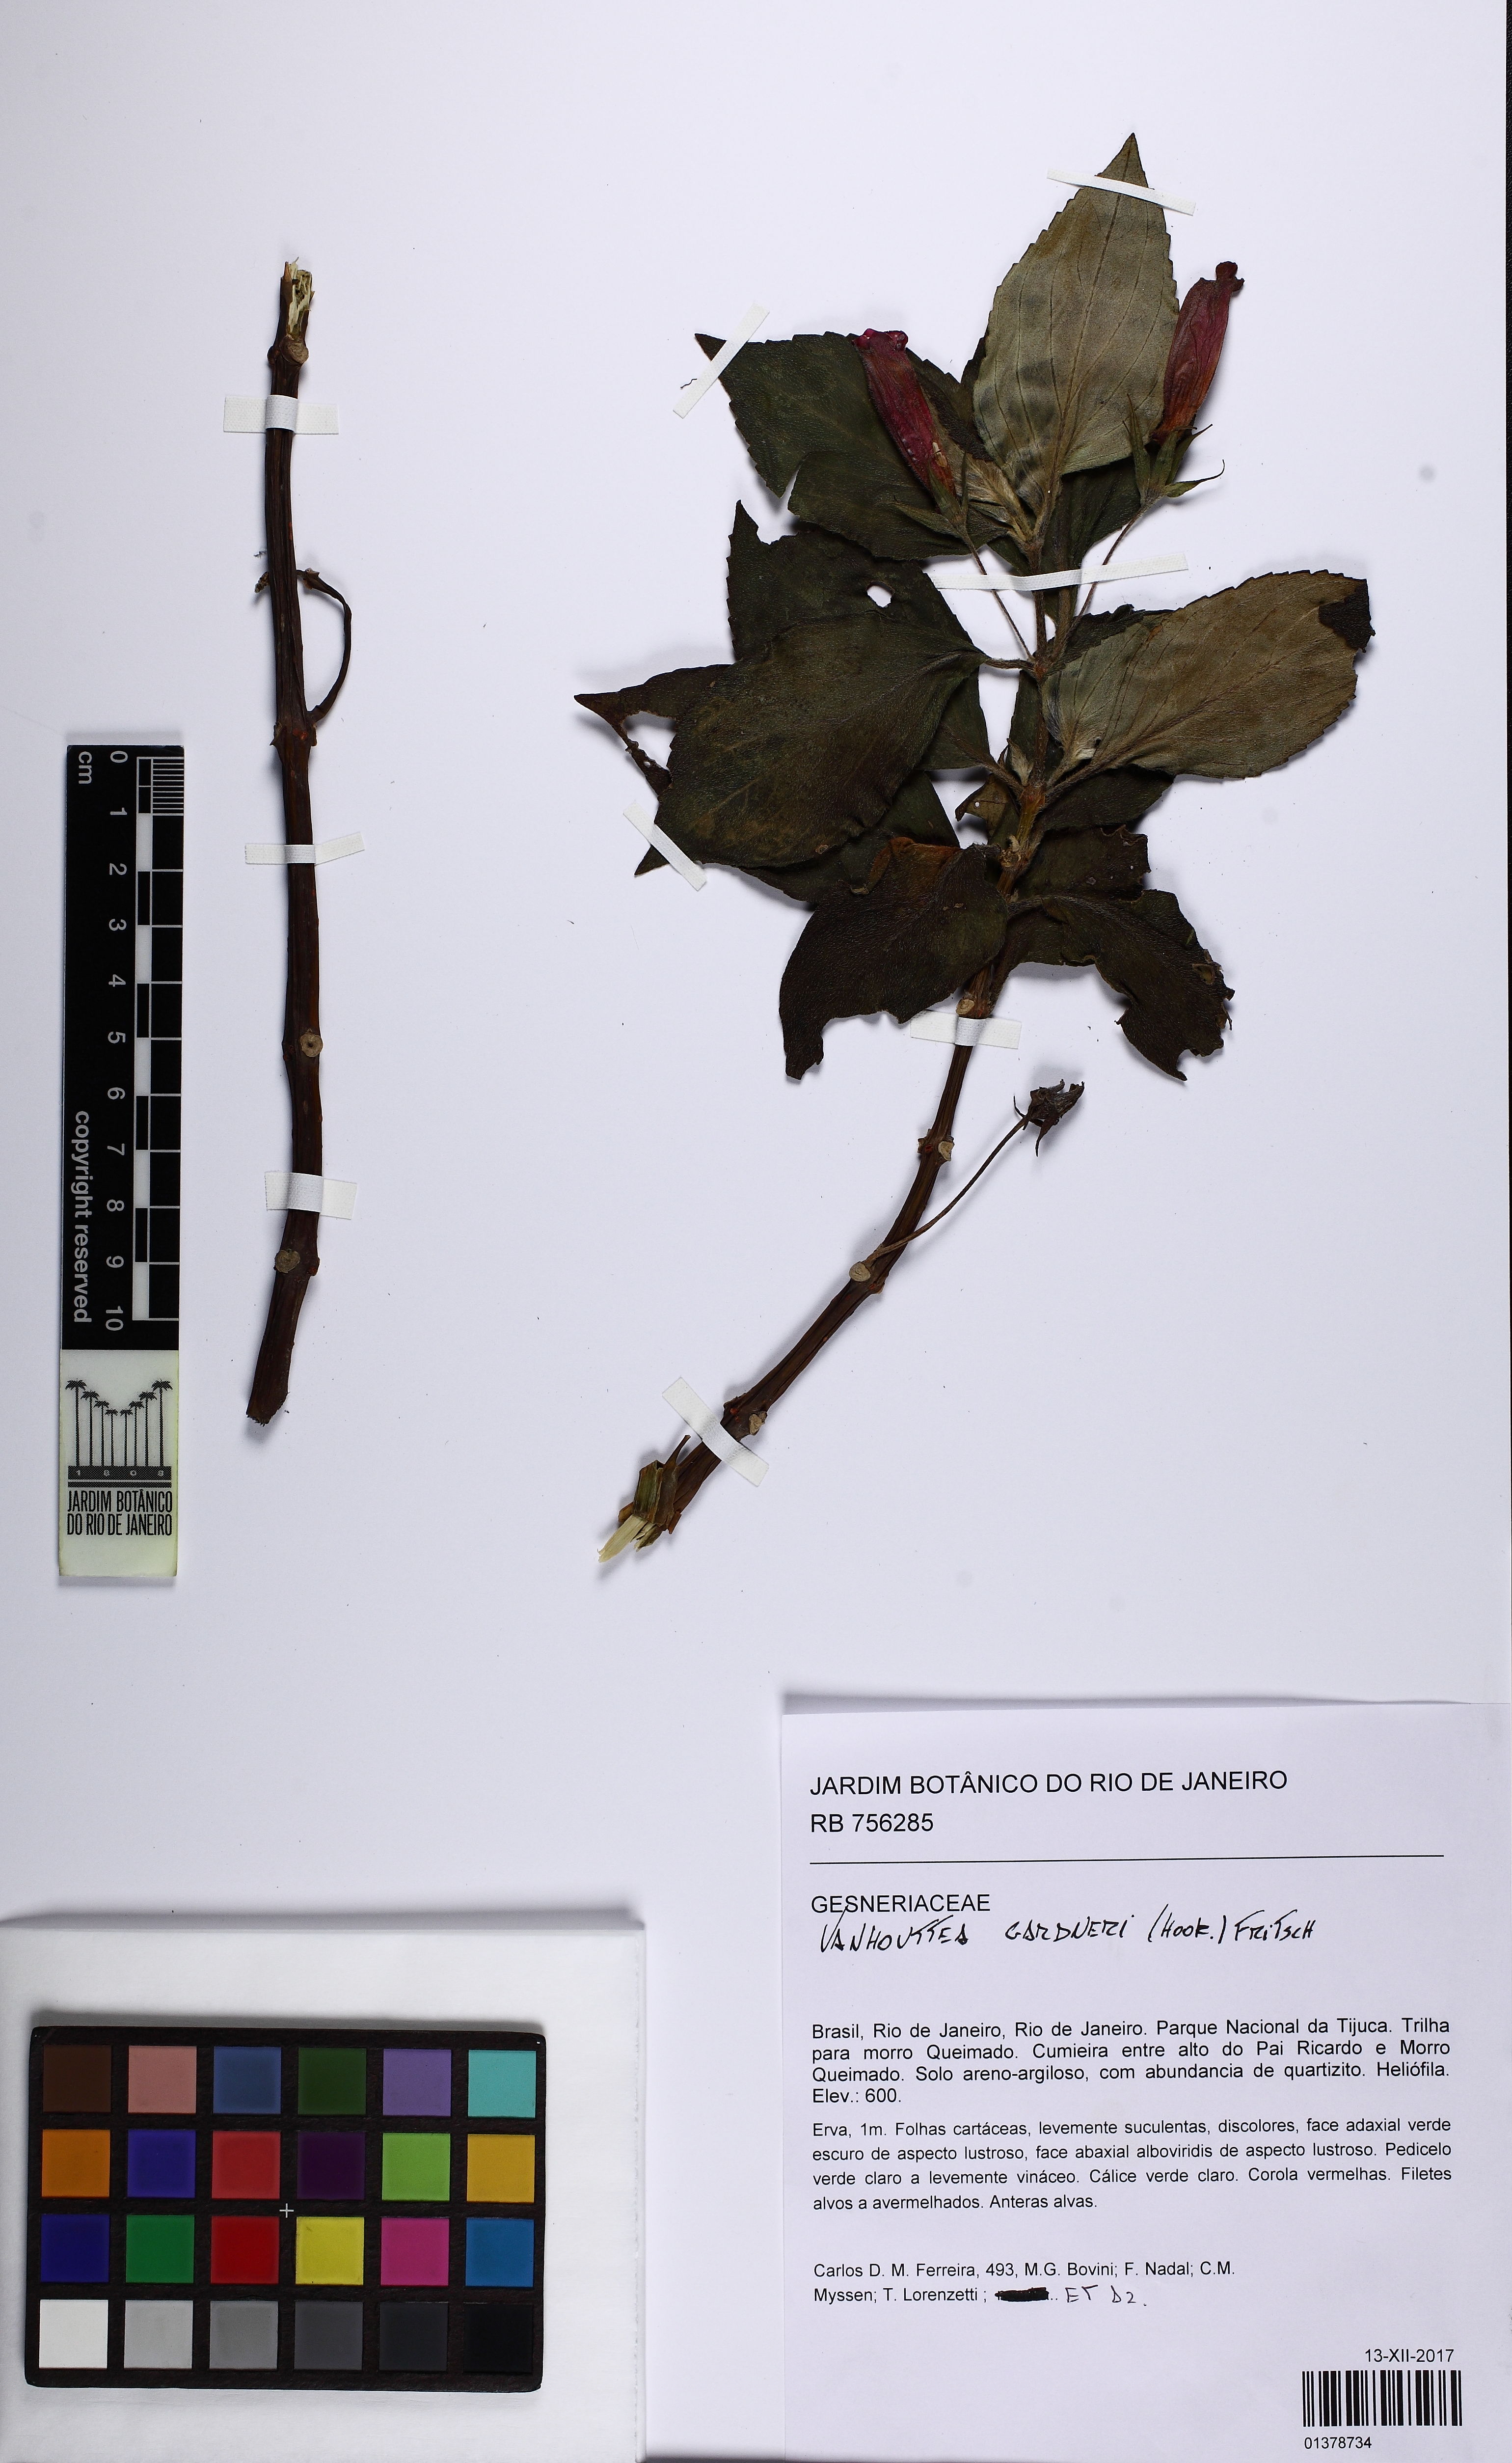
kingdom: Plantae
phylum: Tracheophyta
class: Magnoliopsida
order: Lamiales
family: Gesneriaceae
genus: Vanhouttea
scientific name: Vanhouttea gardneri
